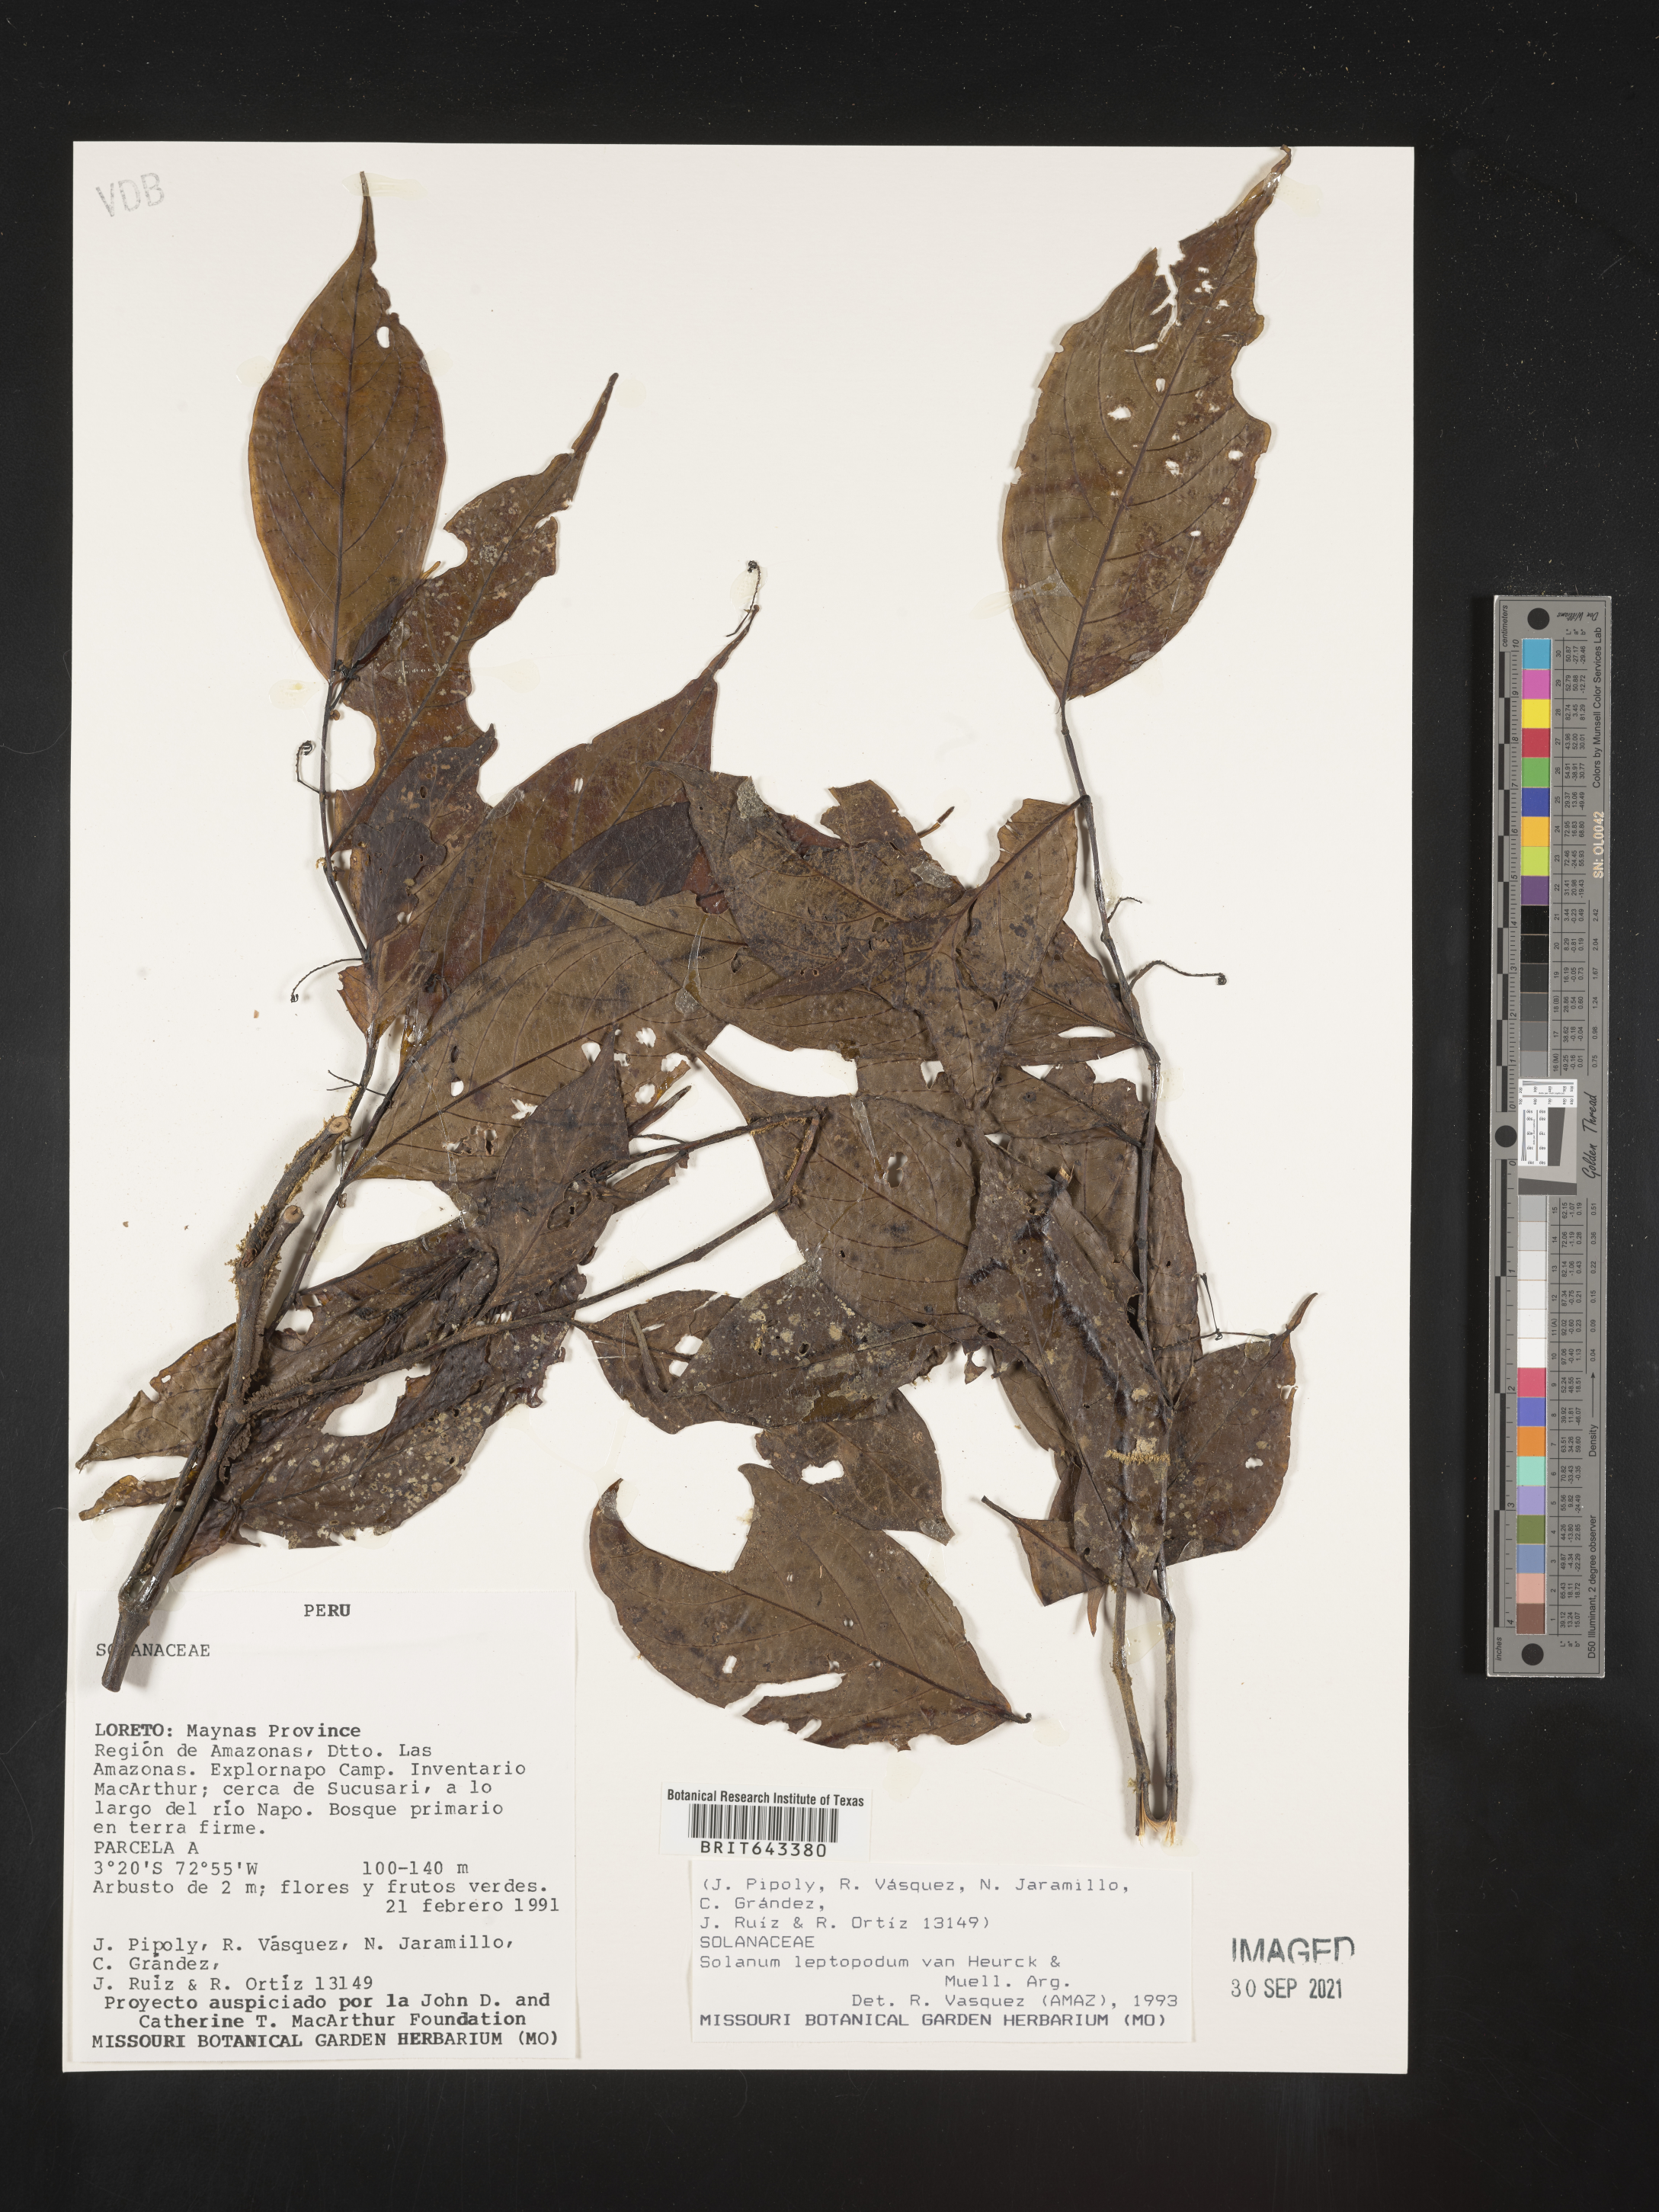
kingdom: Plantae
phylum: Tracheophyta
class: Magnoliopsida
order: Solanales
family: Solanaceae
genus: Solanum
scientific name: Solanum
